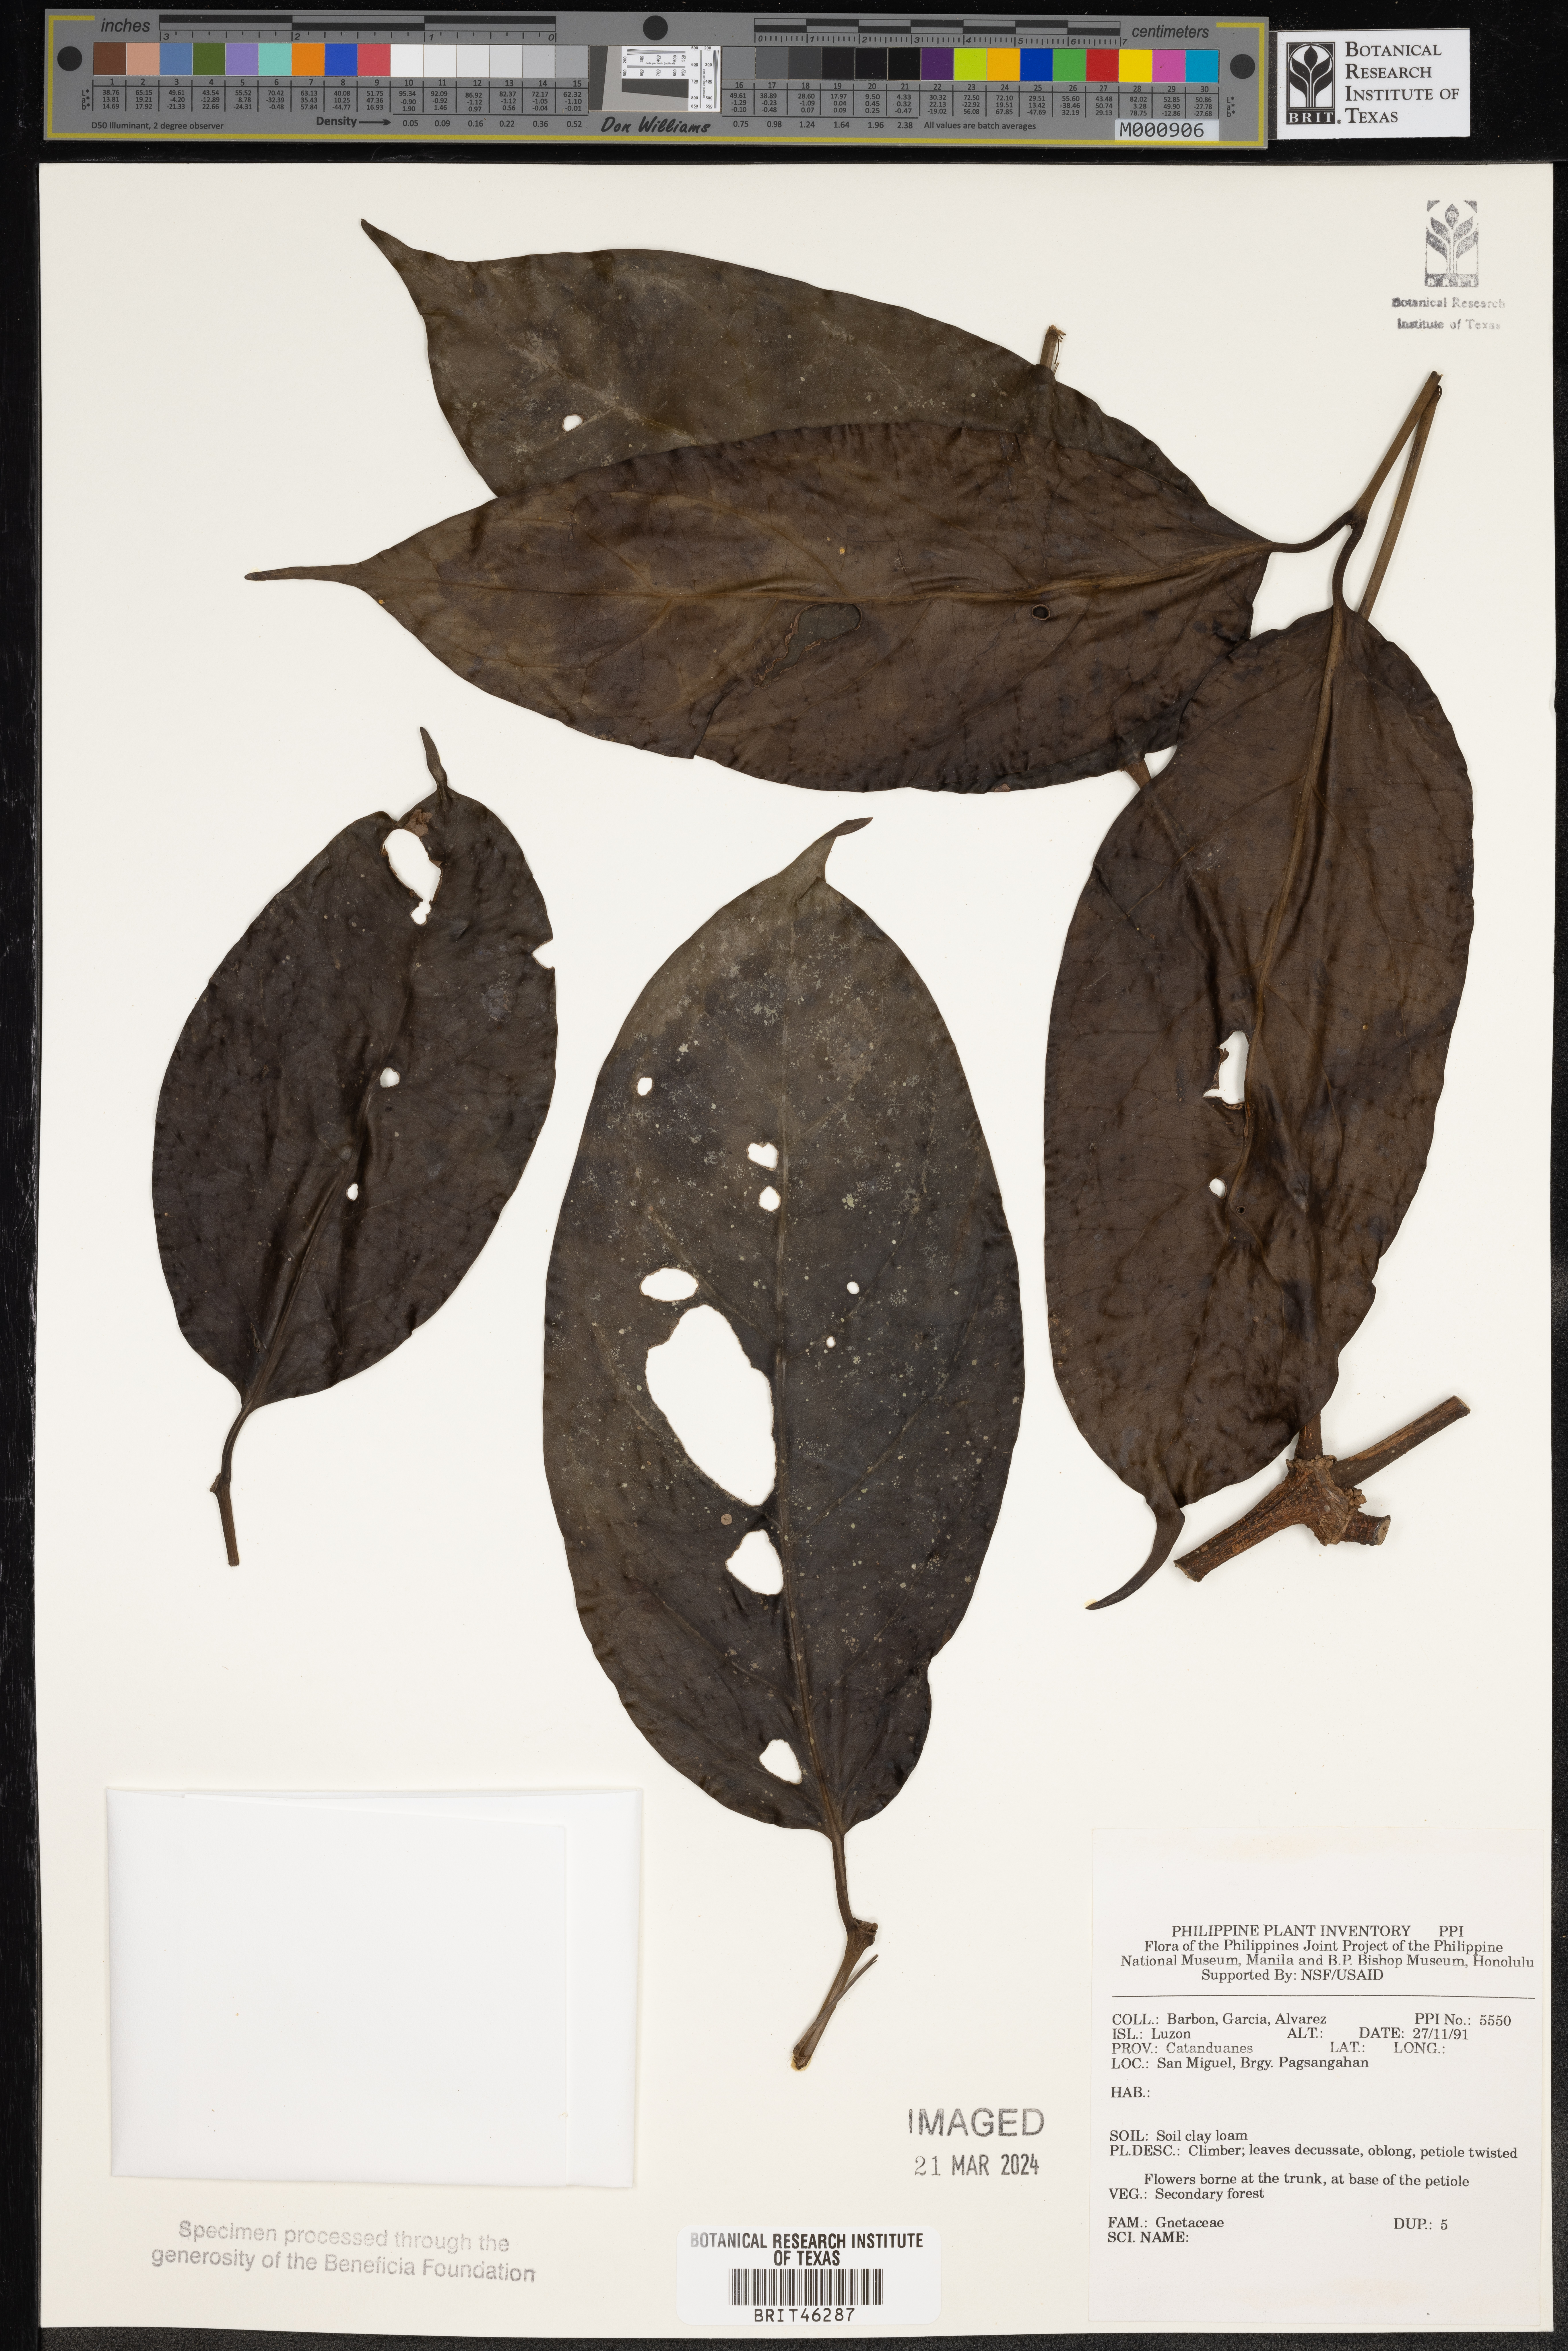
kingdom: Plantae
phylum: Tracheophyta
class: Gnetopsida
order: Gnetales
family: Gnetaceae
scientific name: Gnetaceae
